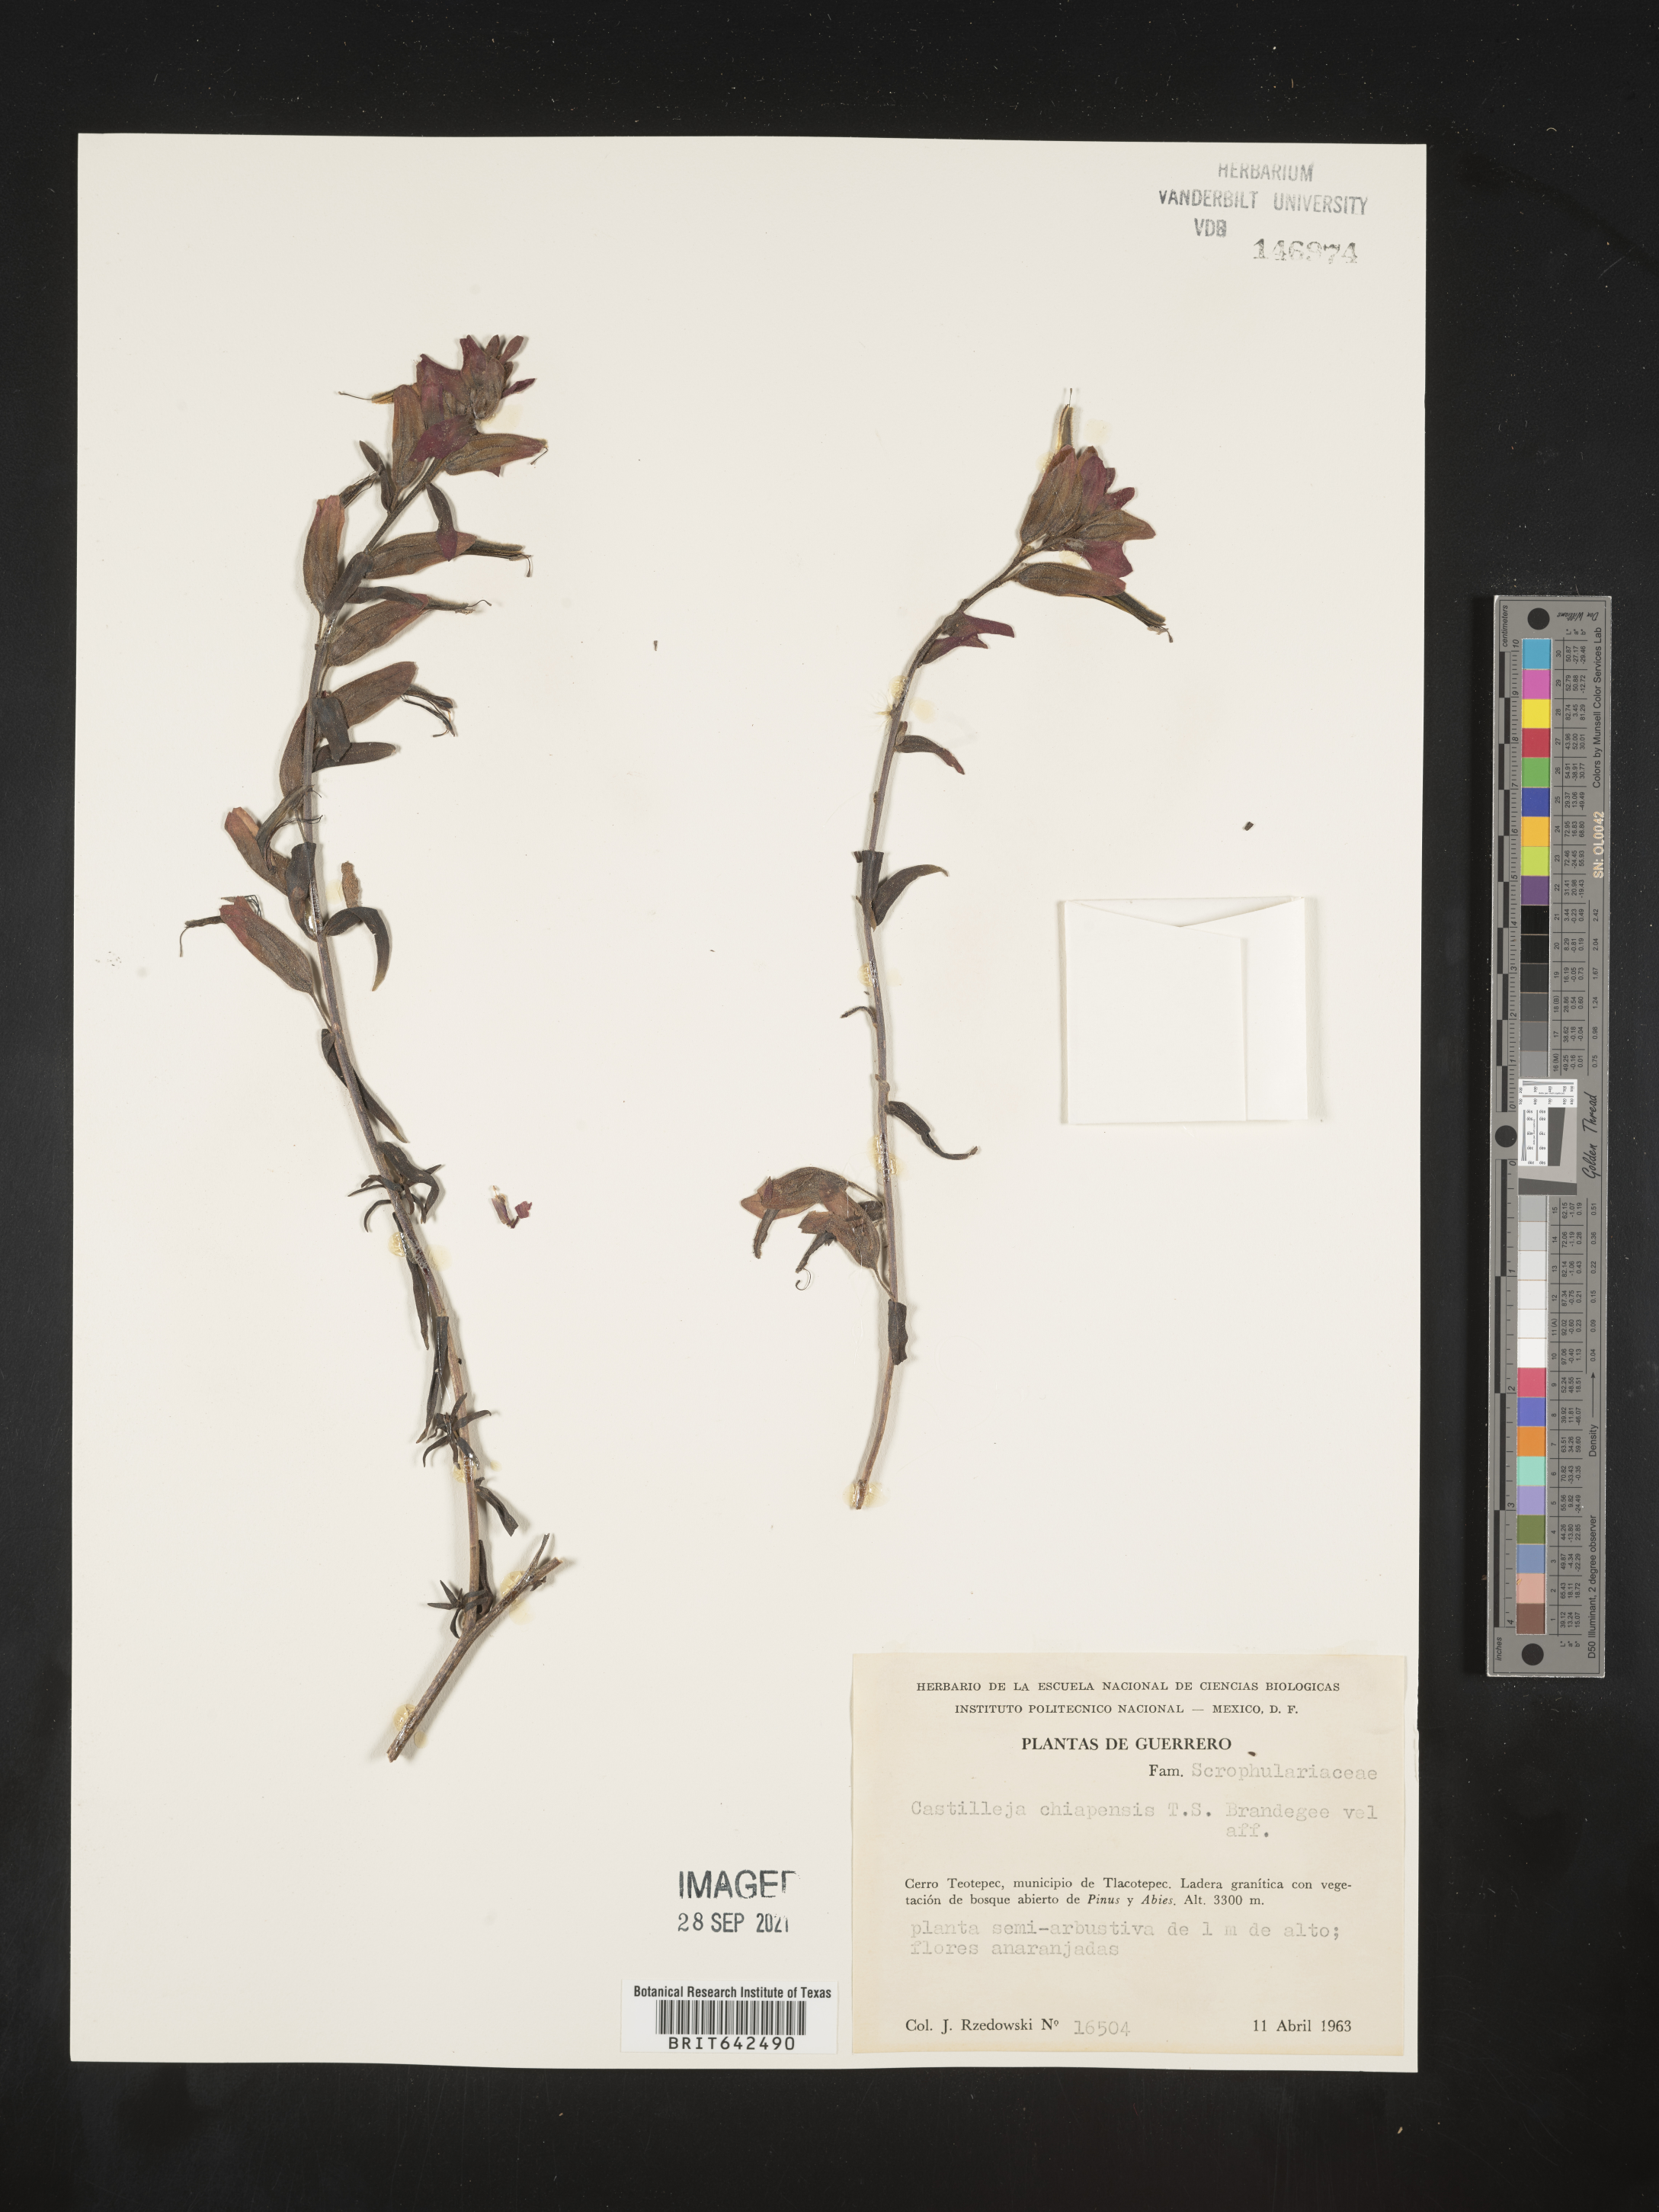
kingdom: Plantae
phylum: Tracheophyta
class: Magnoliopsida
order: Lamiales
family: Orobanchaceae
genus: Castilleja
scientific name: Castilleja
